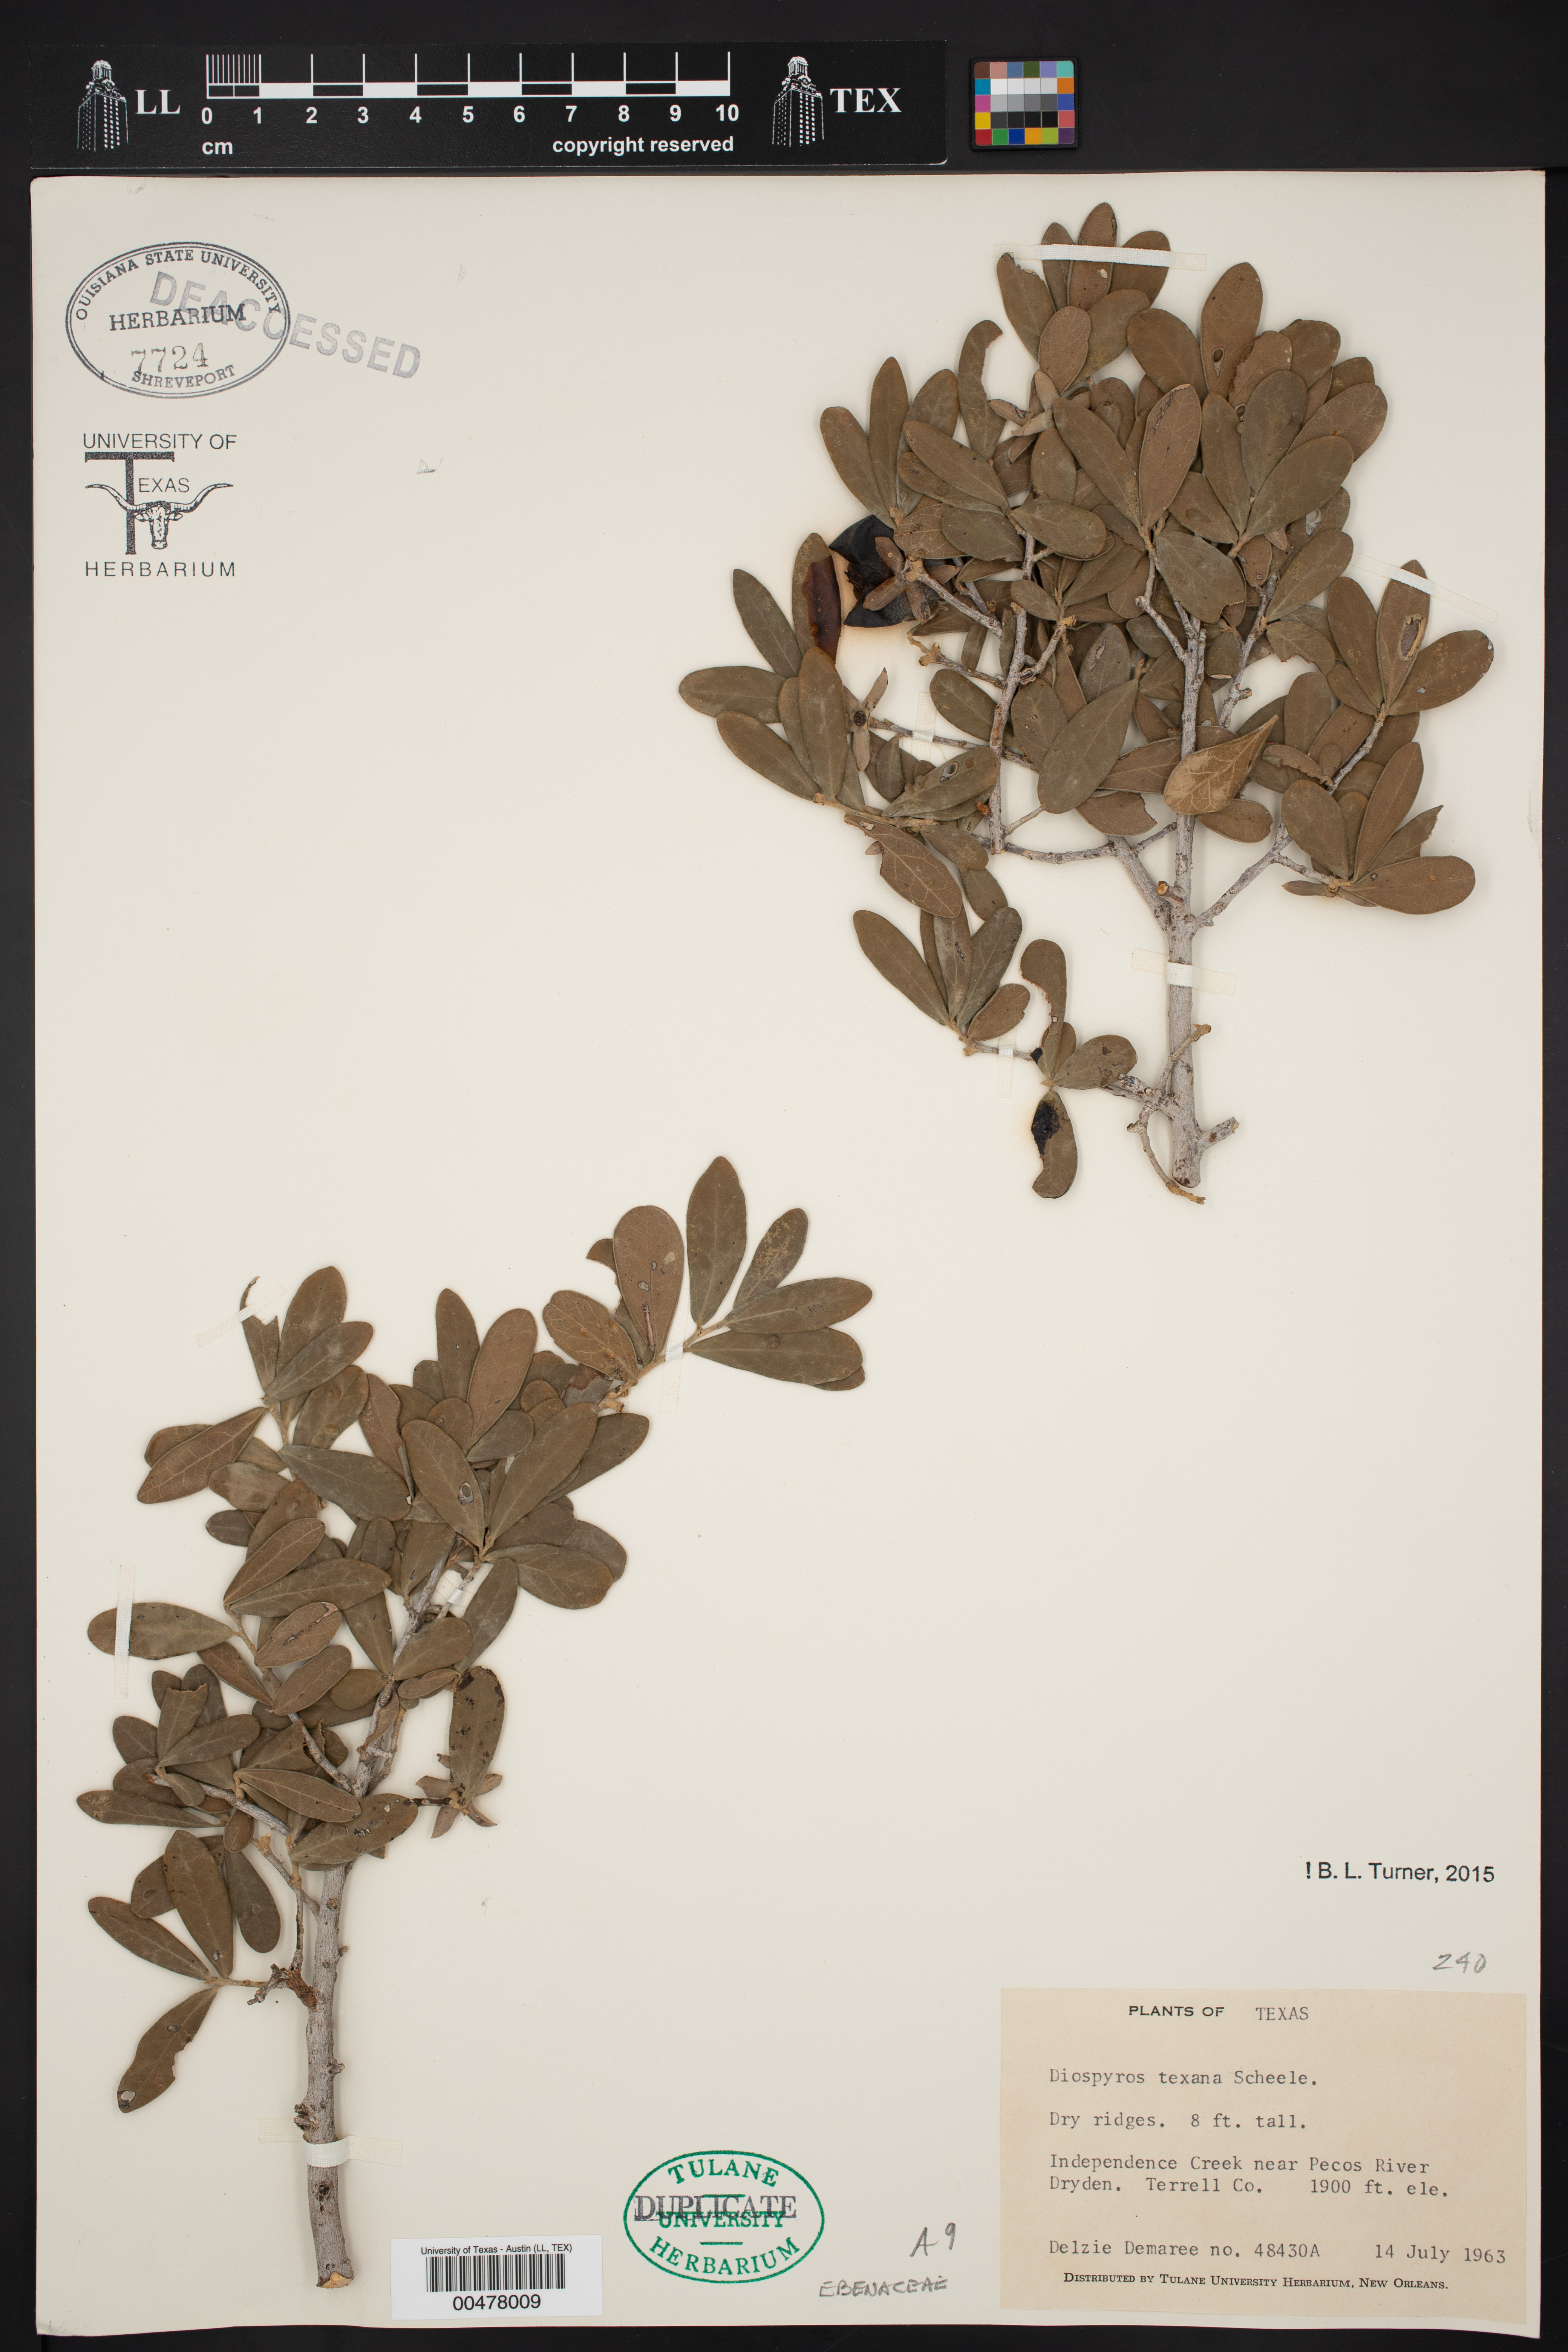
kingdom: Plantae
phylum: Tracheophyta
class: Magnoliopsida
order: Ericales
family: Ebenaceae
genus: Diospyros
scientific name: Diospyros texana
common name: Texas persimmon
